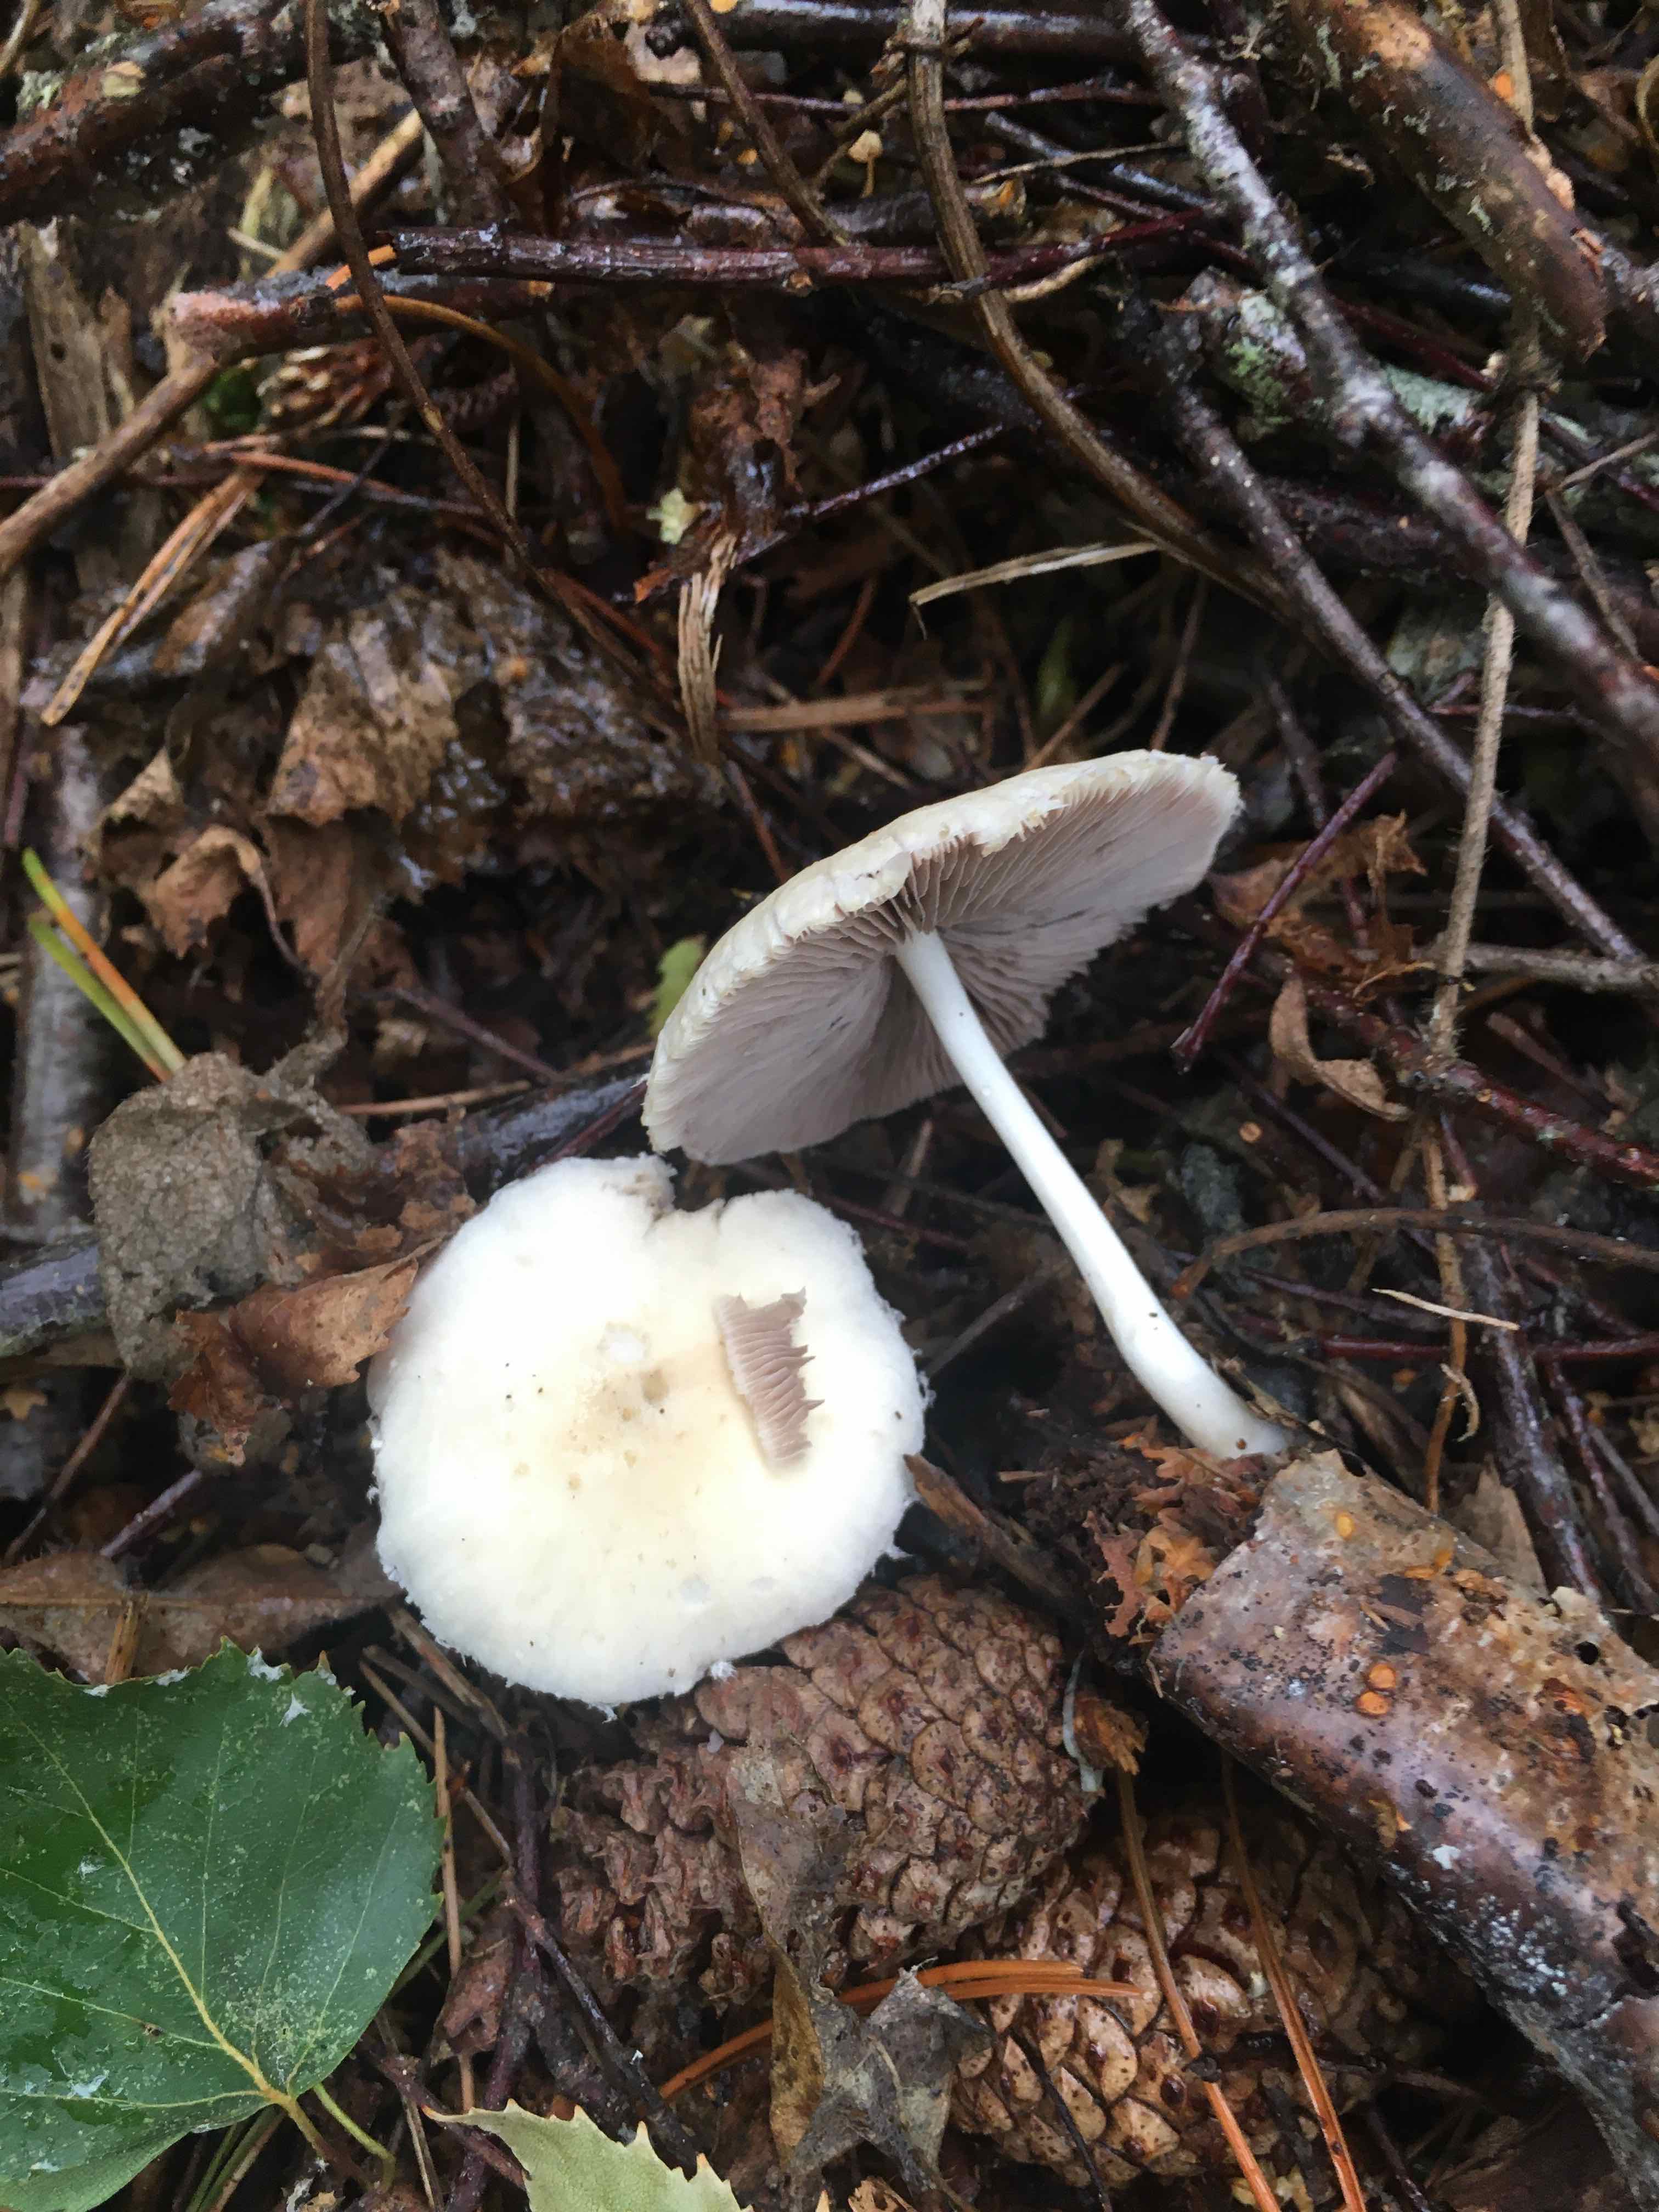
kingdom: Fungi
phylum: Basidiomycota
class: Agaricomycetes
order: Agaricales
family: Psathyrellaceae
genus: Candolleomyces
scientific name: Candolleomyces candolleanus
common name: Candolles mørkhat
